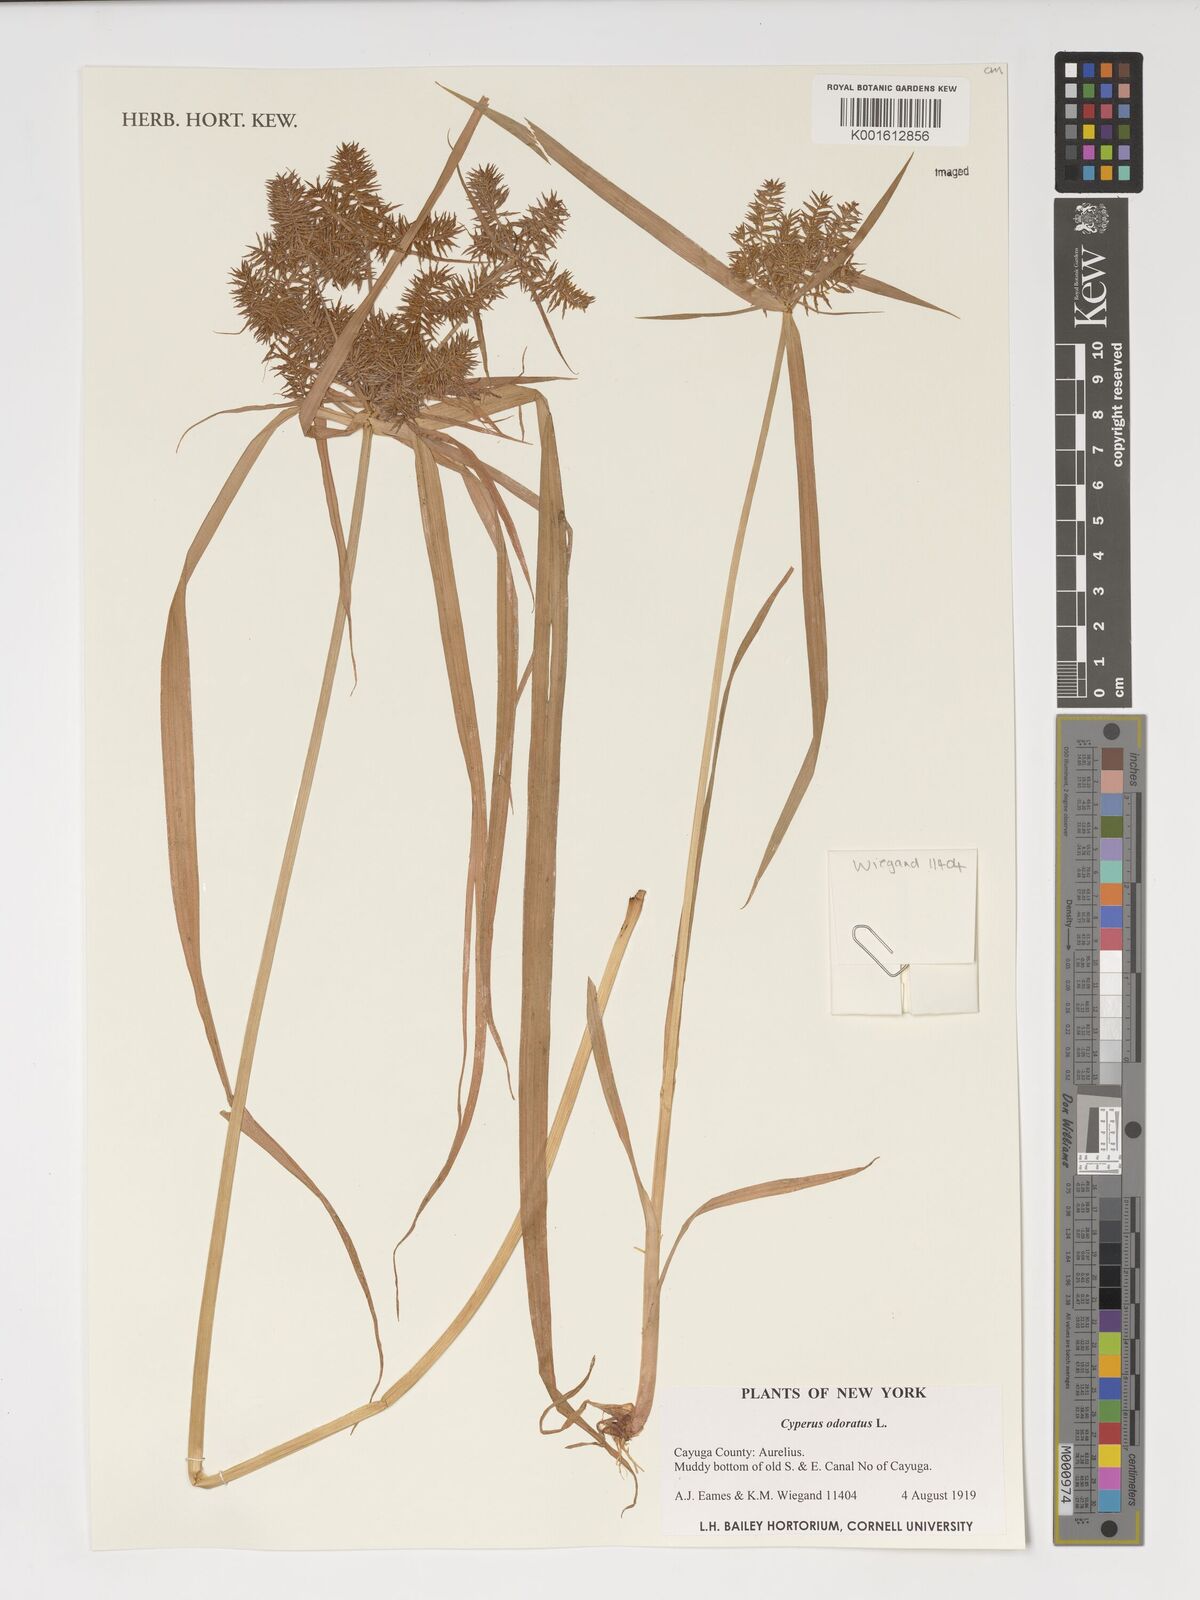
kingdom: Plantae
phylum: Tracheophyta
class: Liliopsida
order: Poales
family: Cyperaceae
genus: Cyperus
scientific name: Cyperus odoratus
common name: Fragrant flatsedge
